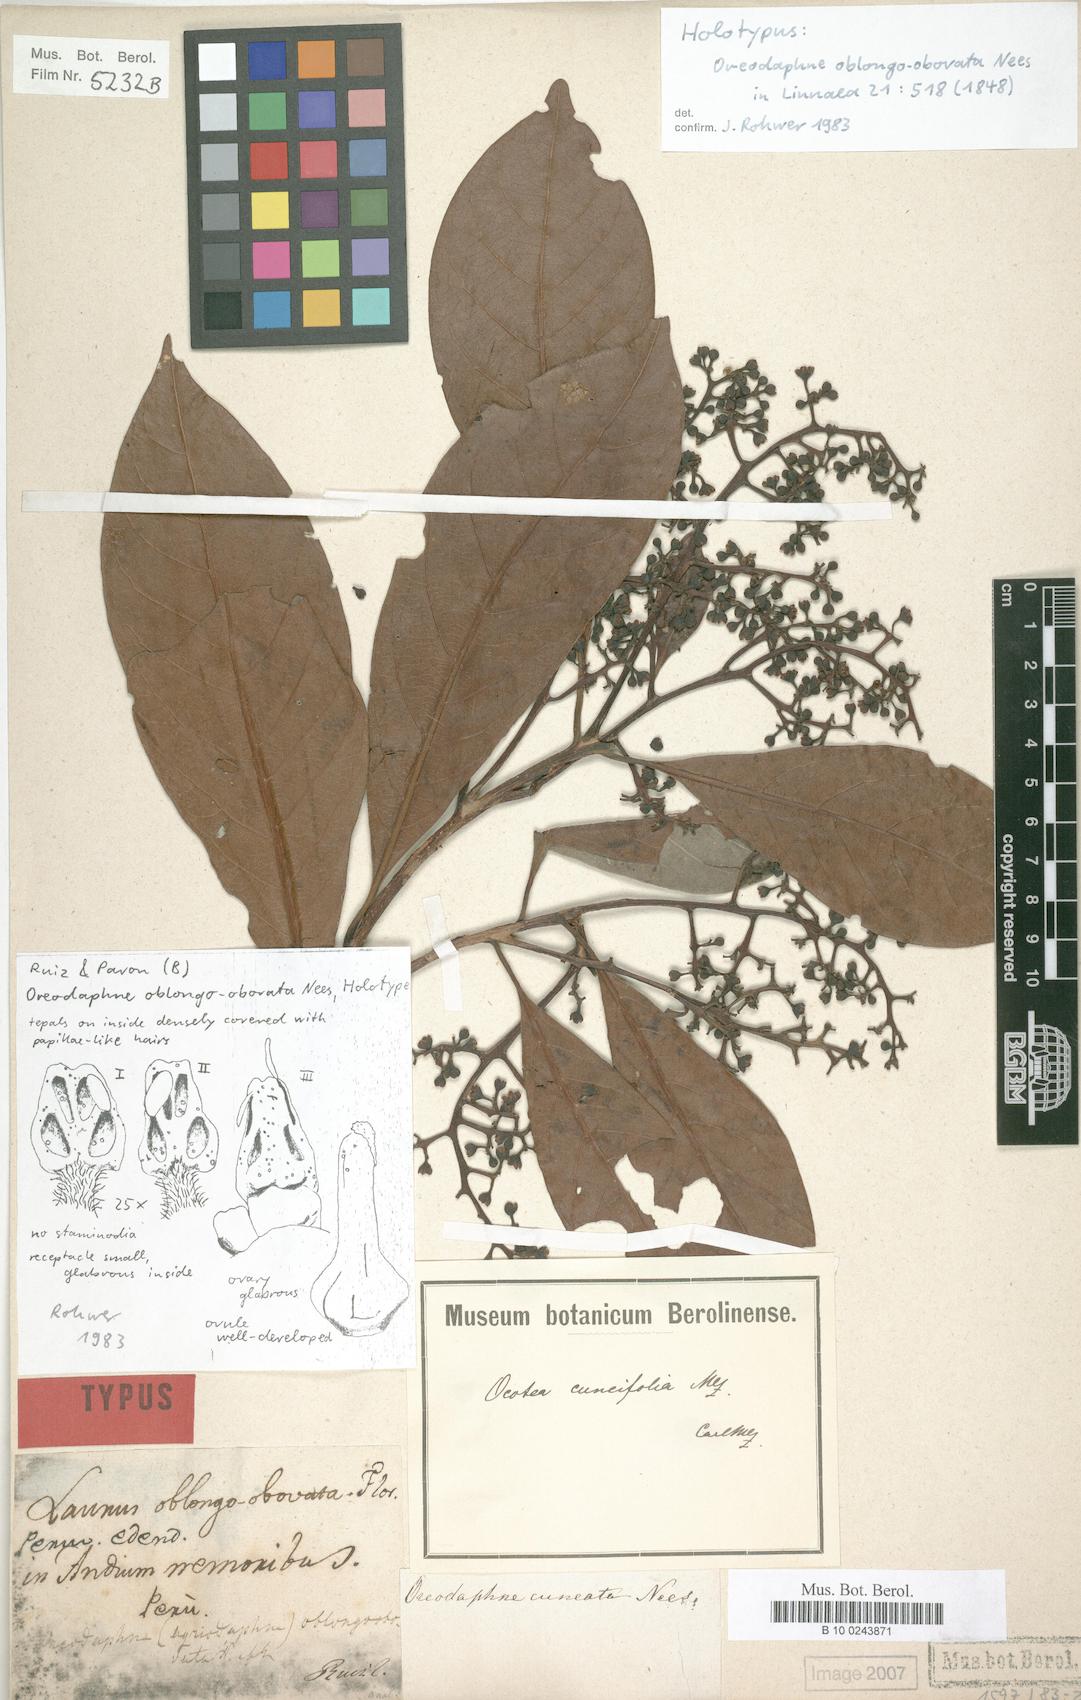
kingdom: Plantae
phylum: Tracheophyta
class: Magnoliopsida
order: Laurales
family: Lauraceae
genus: Ocotea
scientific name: Ocotea cuneifolia
